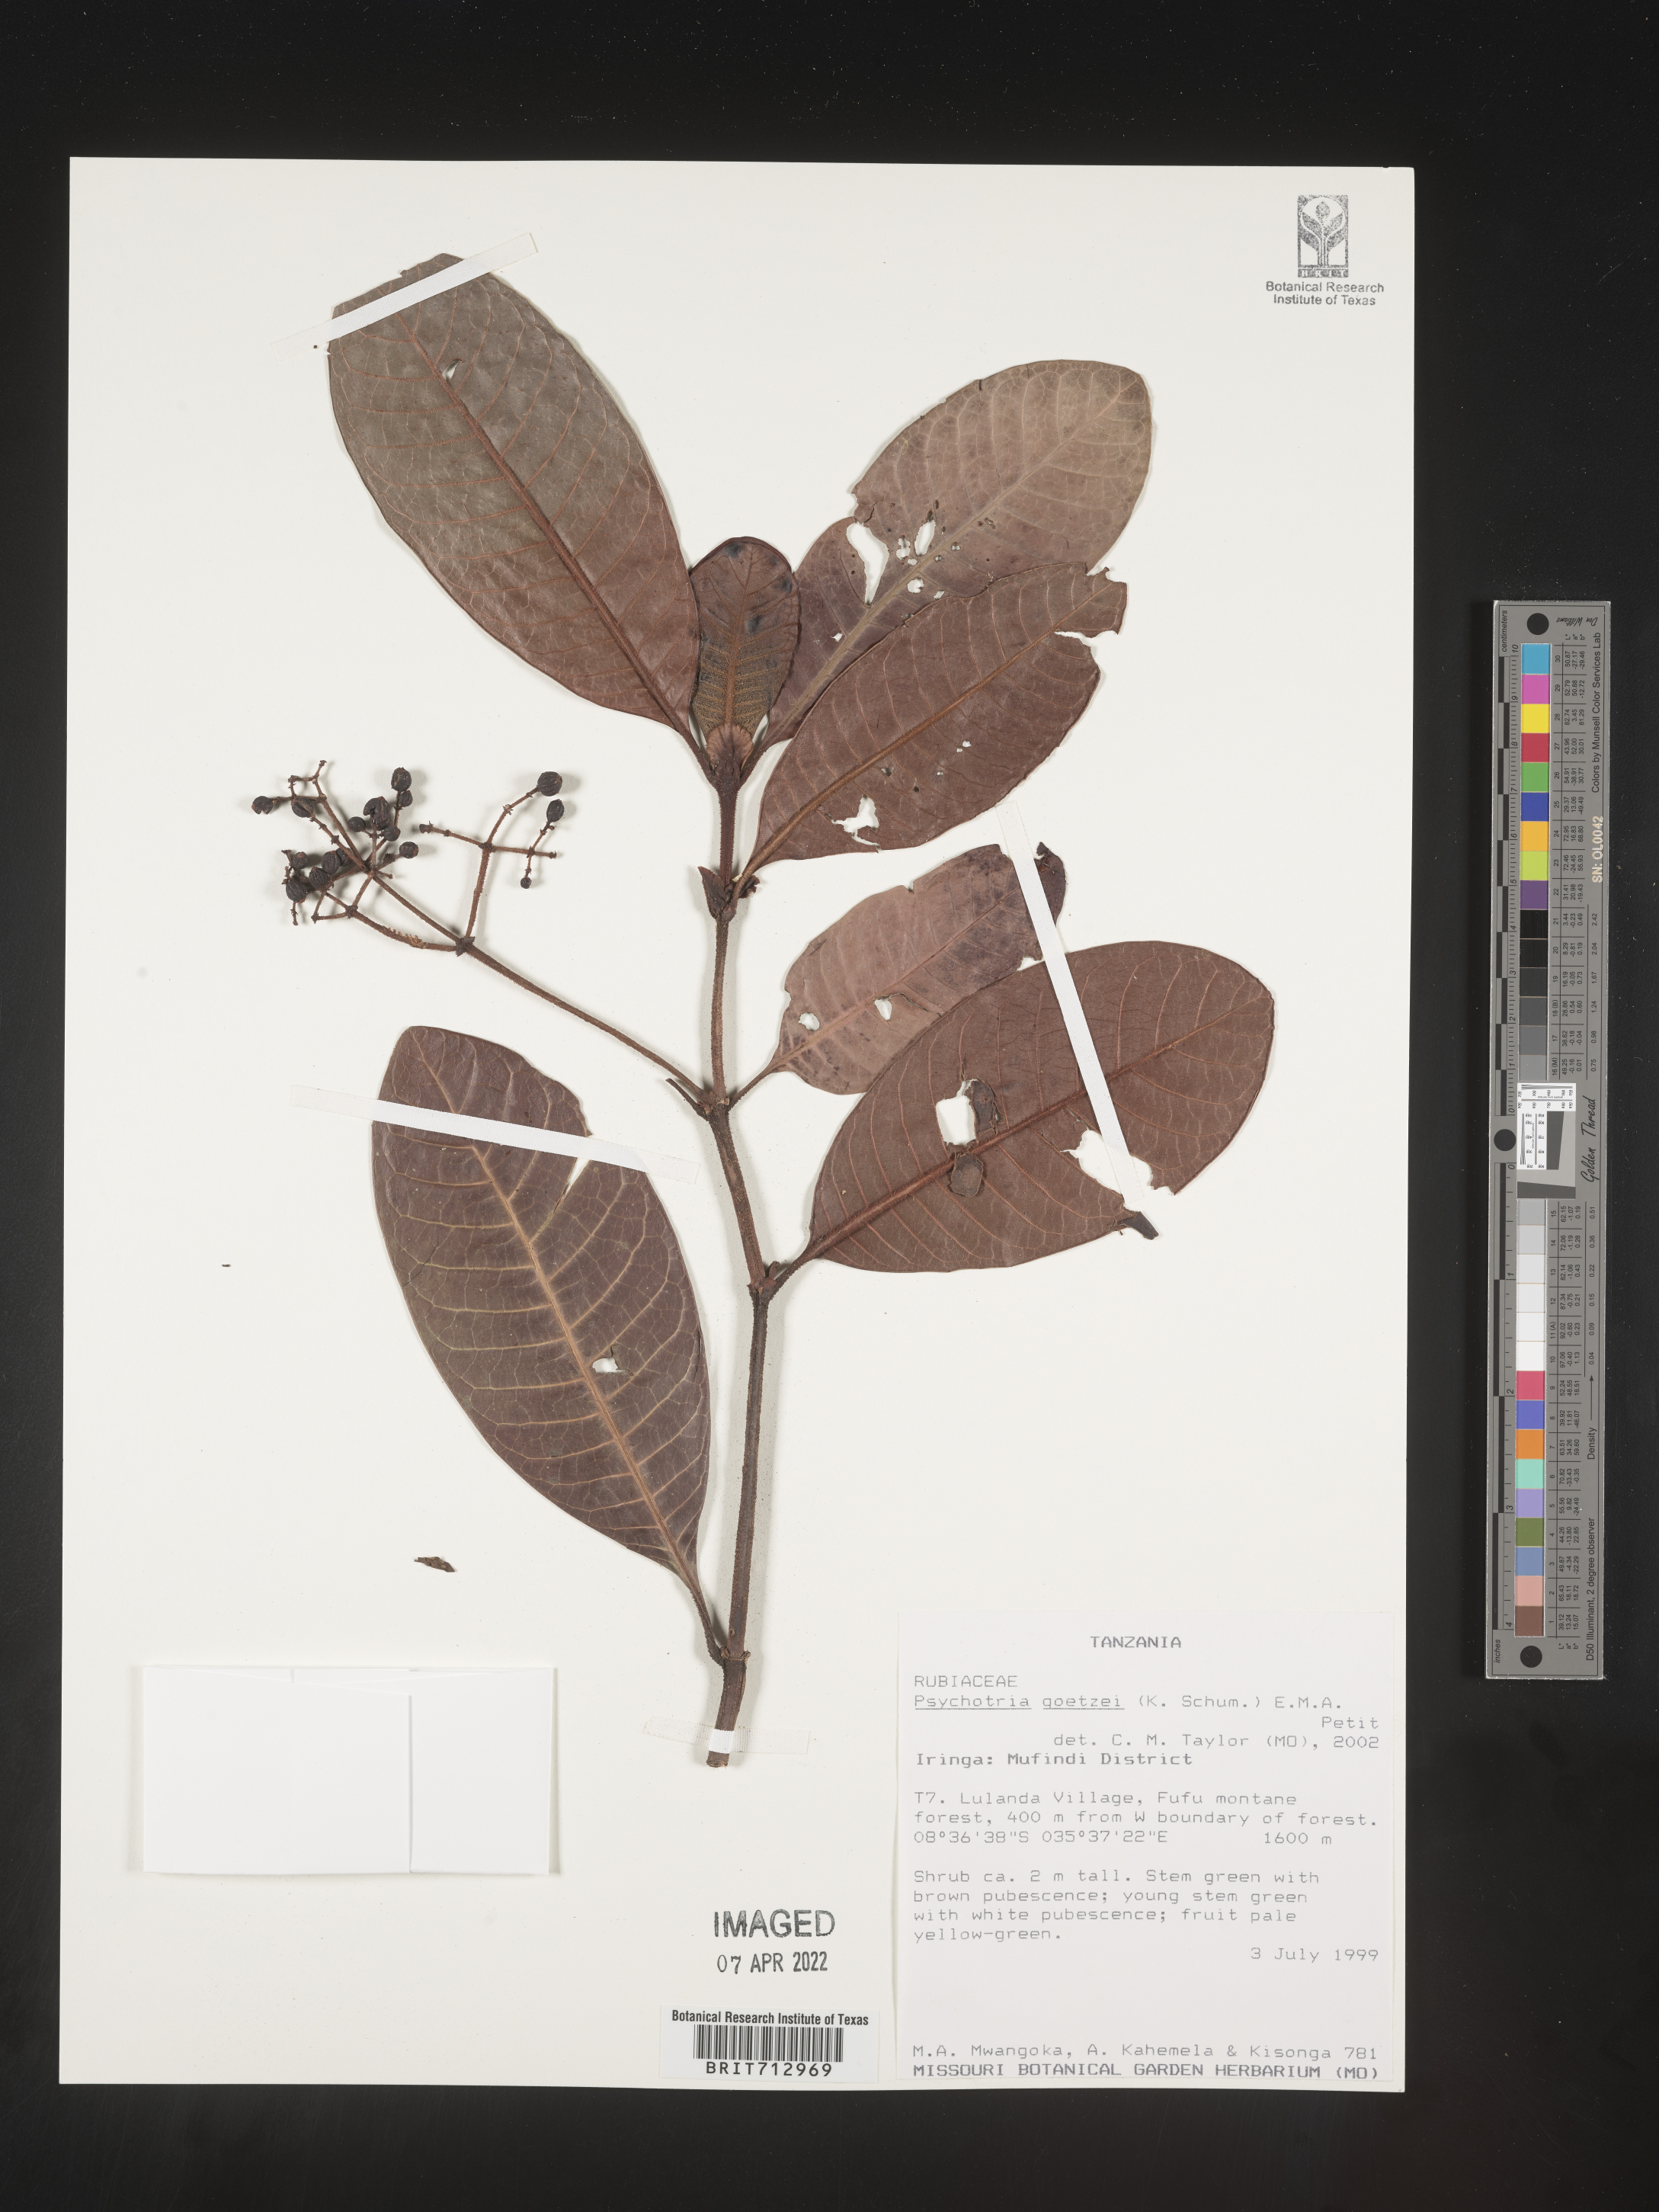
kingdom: Plantae
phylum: Tracheophyta
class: Magnoliopsida
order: Gentianales
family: Rubiaceae
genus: Psychotria
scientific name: Psychotria
